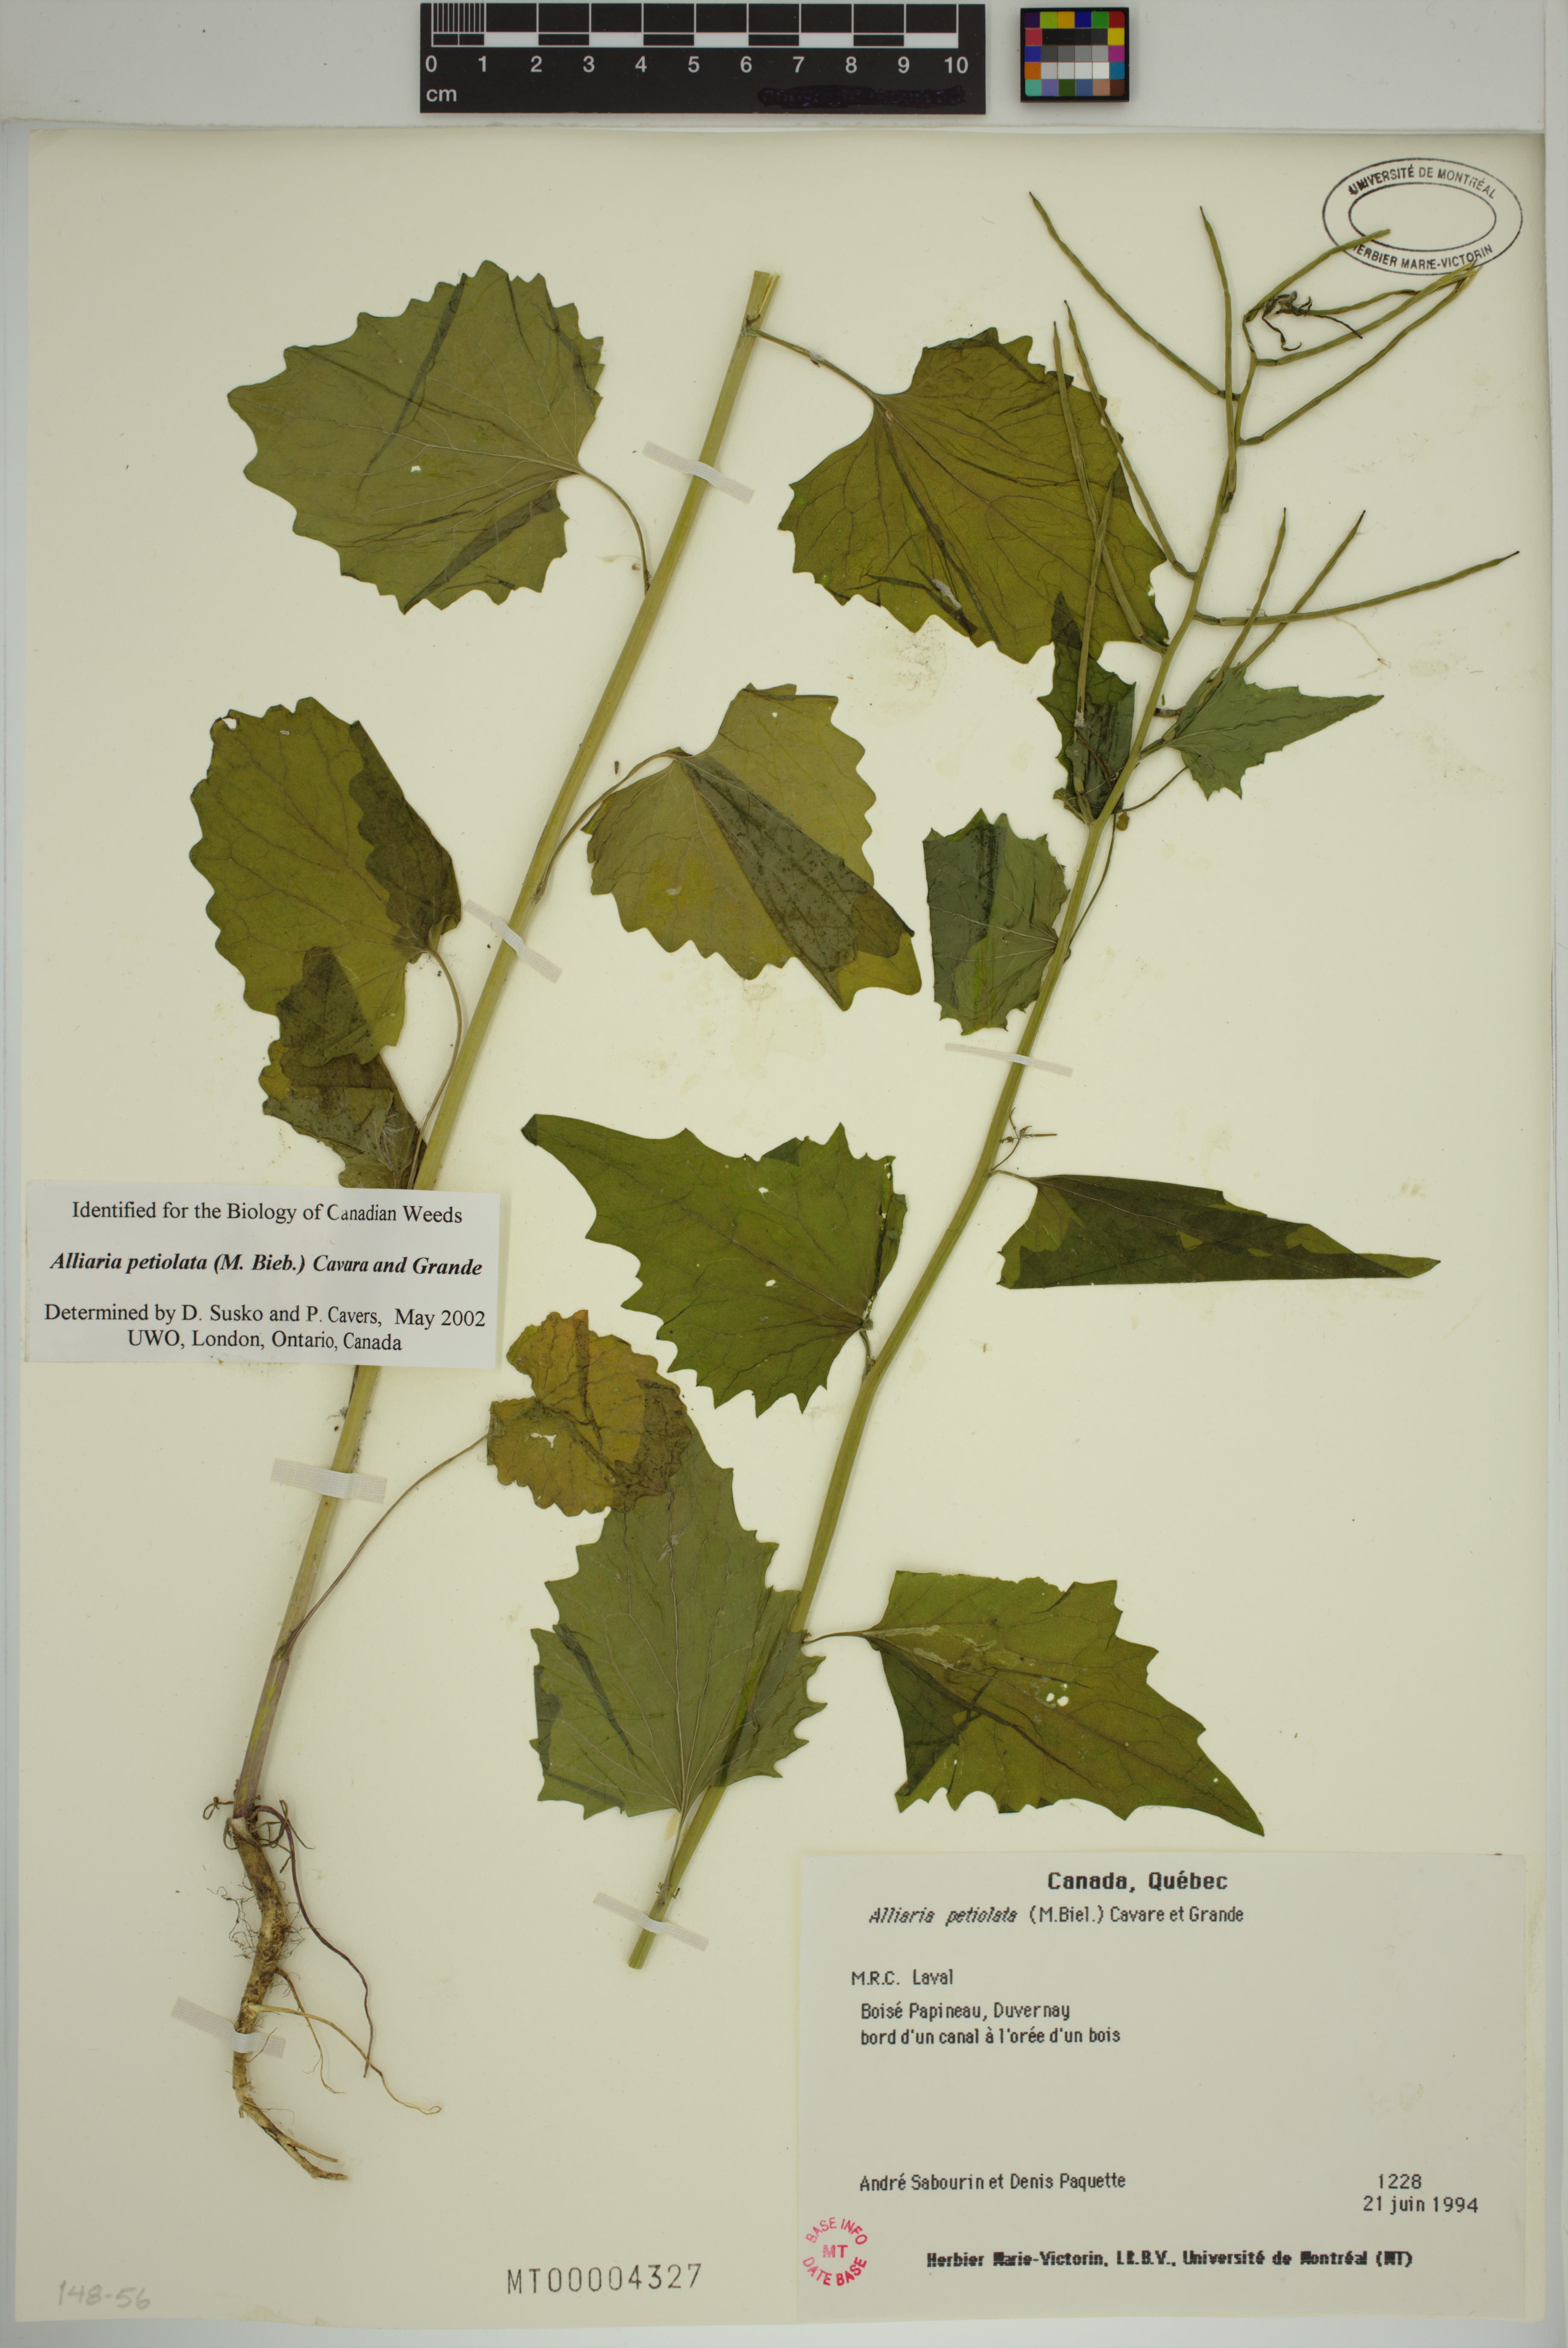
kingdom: Plantae
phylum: Tracheophyta
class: Magnoliopsida
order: Brassicales
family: Brassicaceae
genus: Alliaria
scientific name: Alliaria petiolata
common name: Garlic mustard
